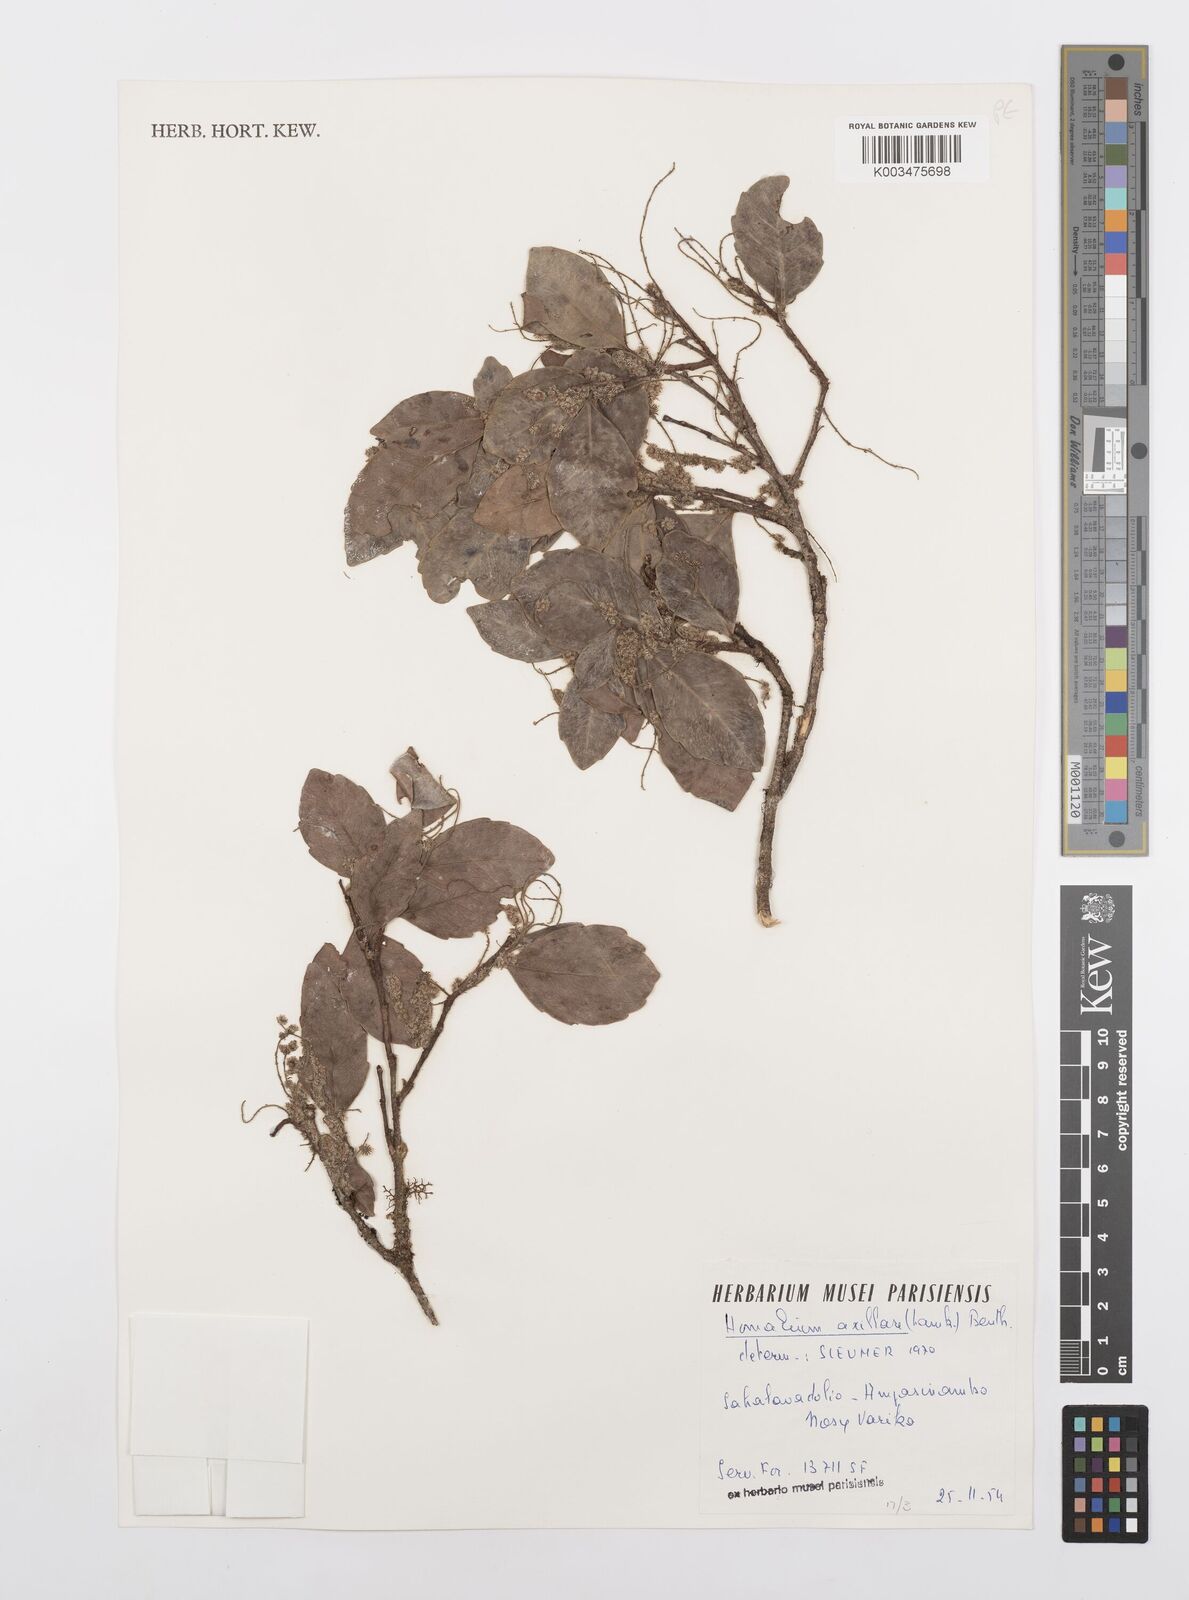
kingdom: Plantae
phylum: Tracheophyta
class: Magnoliopsida
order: Malpighiales
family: Salicaceae
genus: Homalium
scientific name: Homalium axillare
